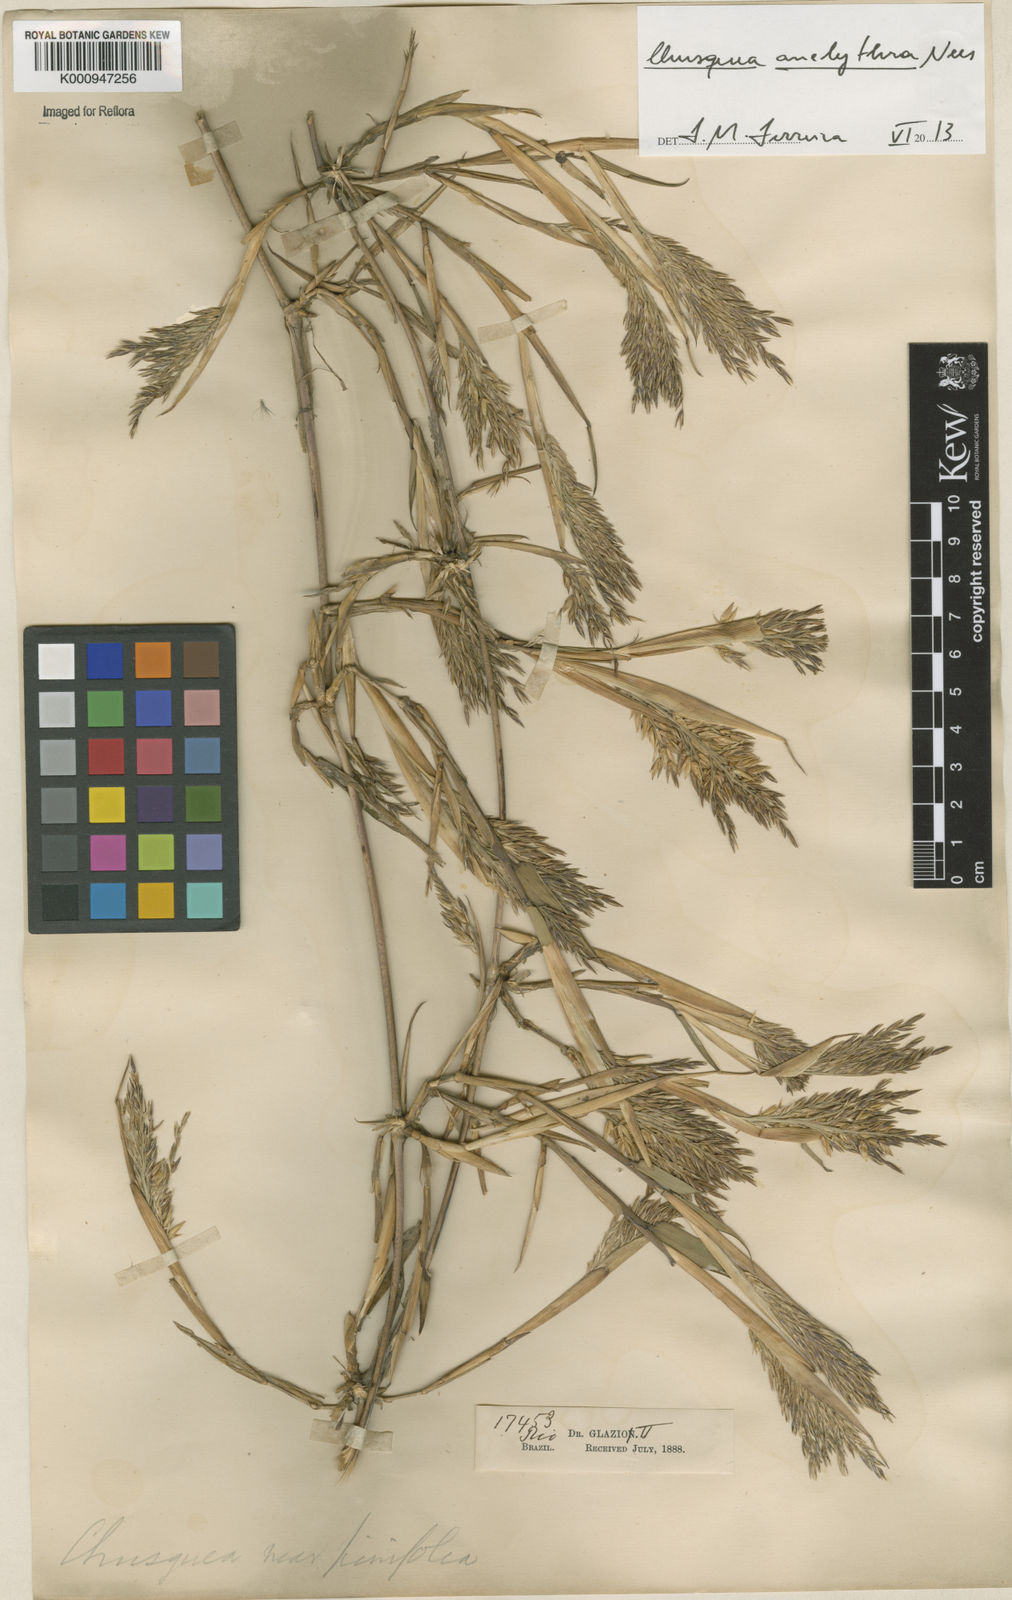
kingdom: Plantae
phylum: Tracheophyta
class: Liliopsida
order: Poales
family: Poaceae
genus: Chusquea
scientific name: Chusquea anelythra
